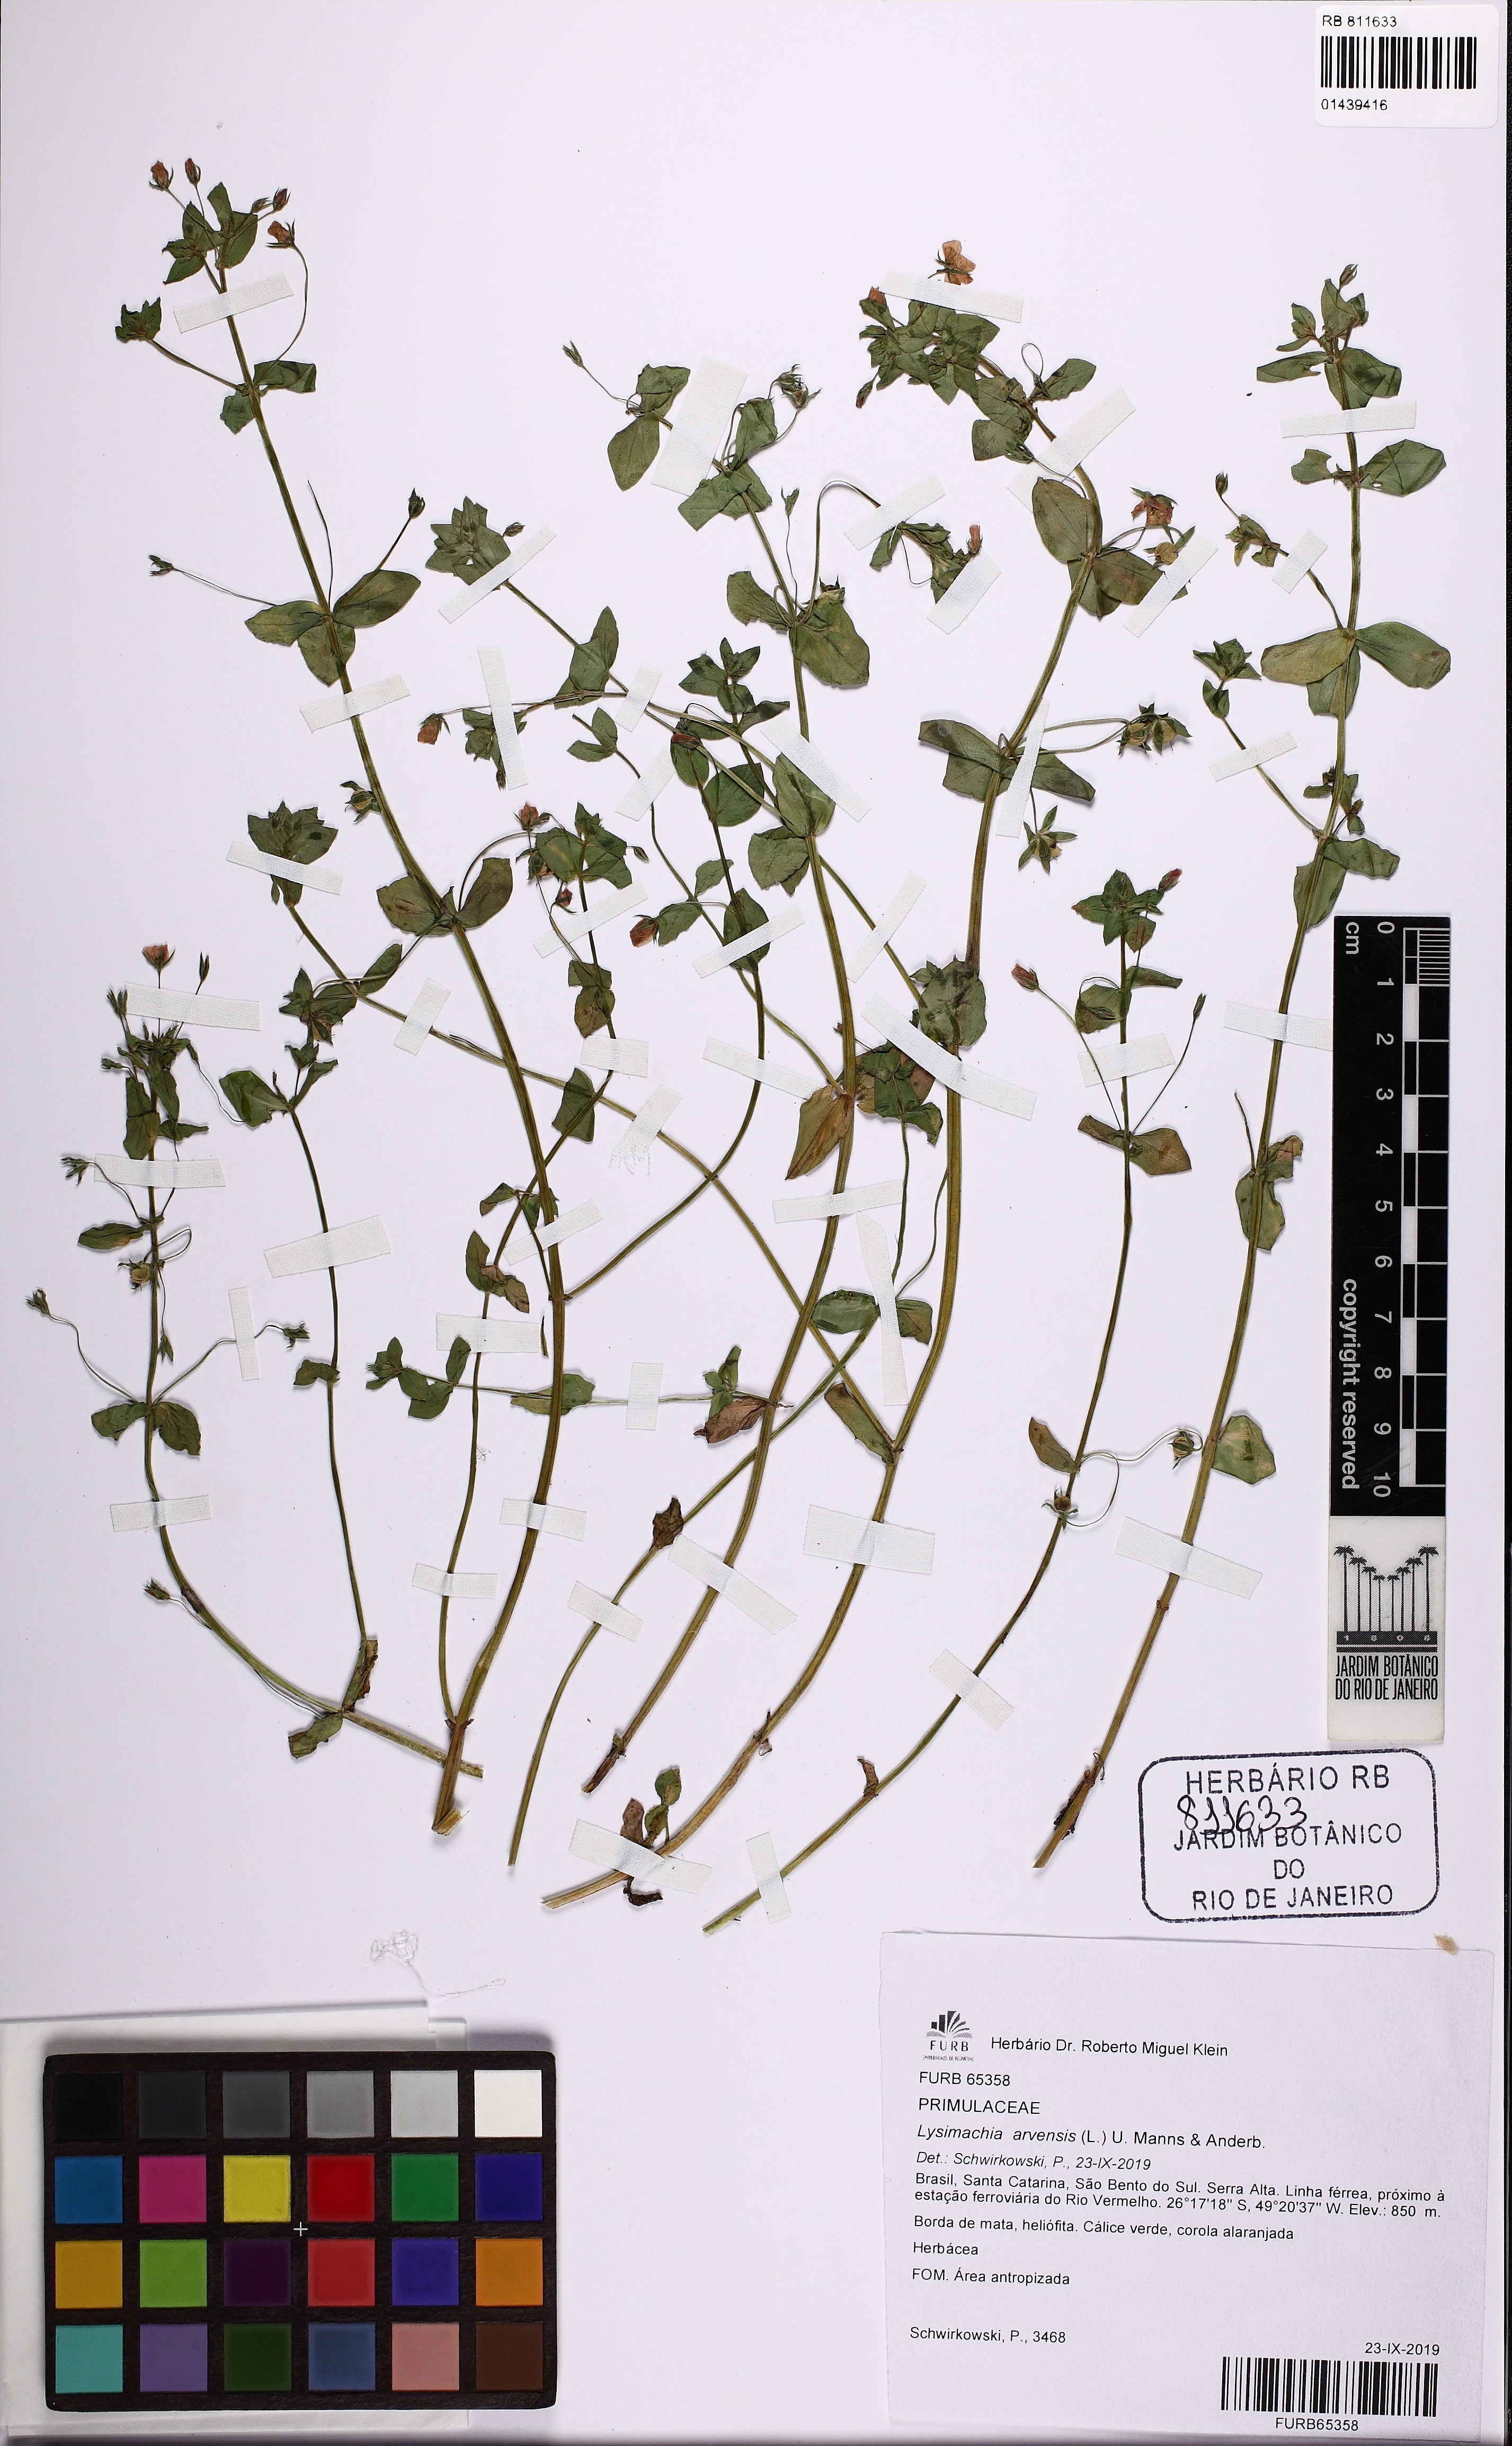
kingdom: Plantae
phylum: Tracheophyta
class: Magnoliopsida
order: Ericales
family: Primulaceae
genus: Lysimachia
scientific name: Lysimachia arvensis
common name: Scarlet pimpernel
